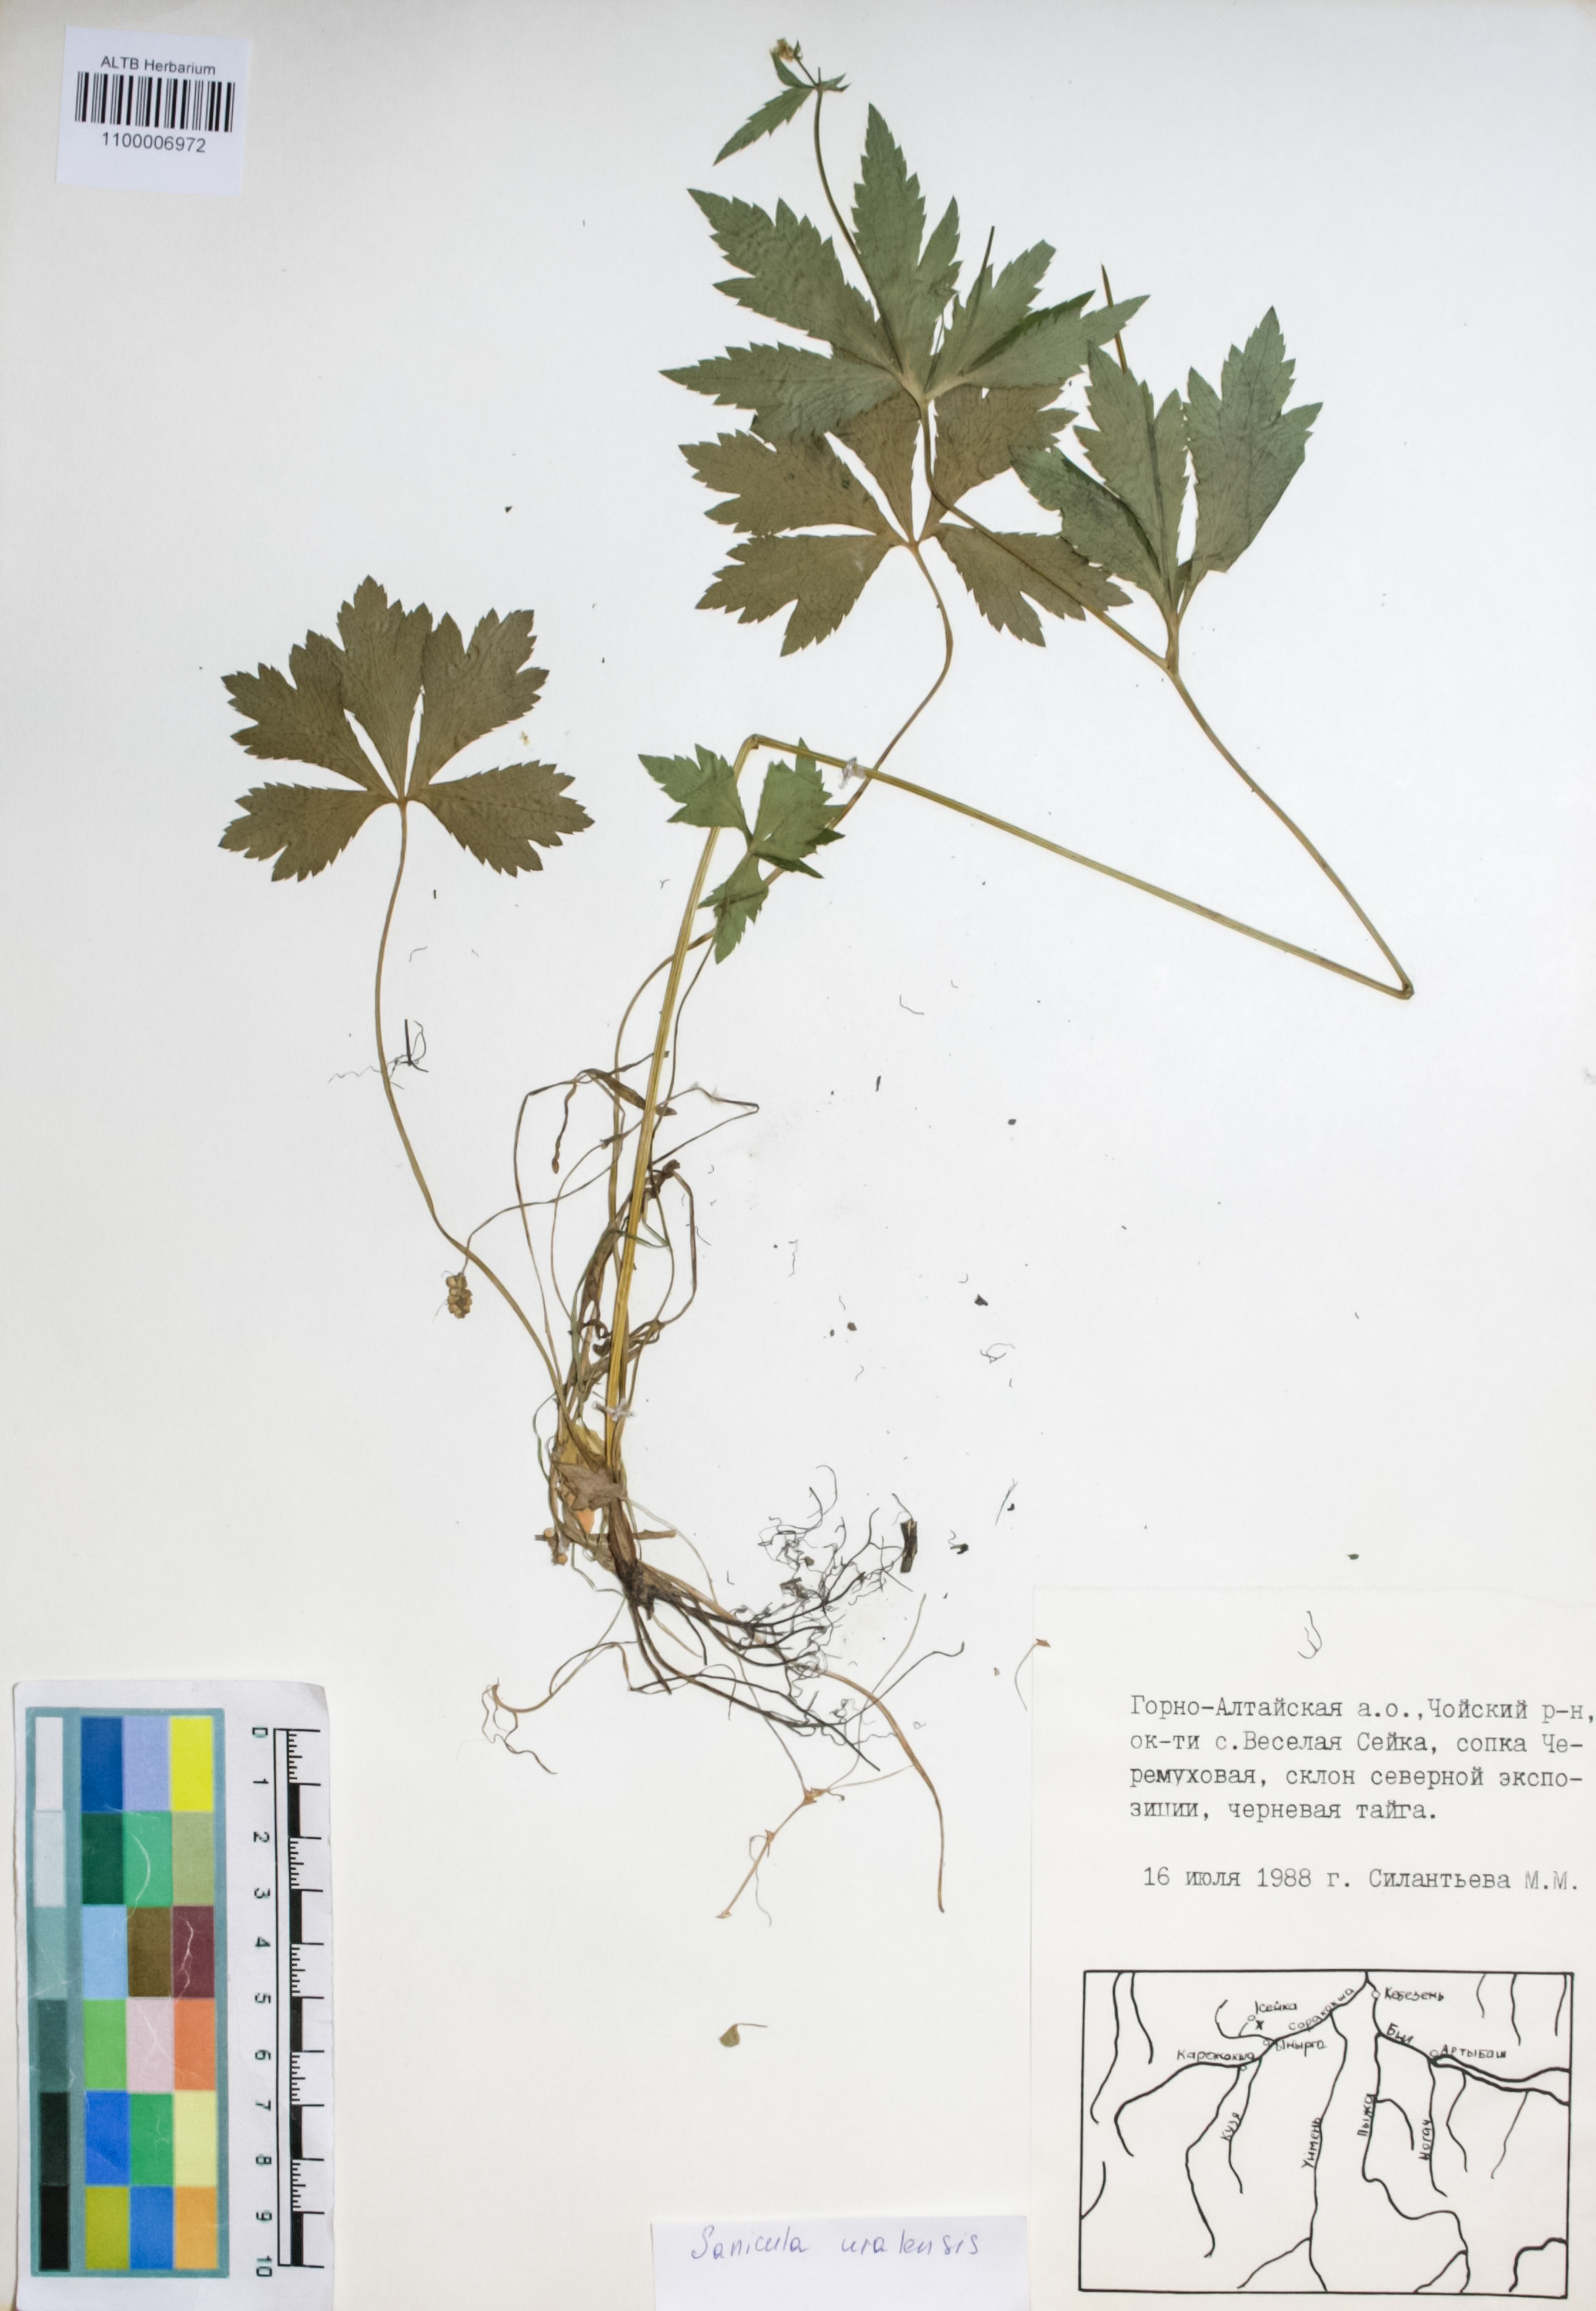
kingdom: Plantae
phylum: Tracheophyta
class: Magnoliopsida
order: Apiales
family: Apiaceae
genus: Sanicula
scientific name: Sanicula giraldii
